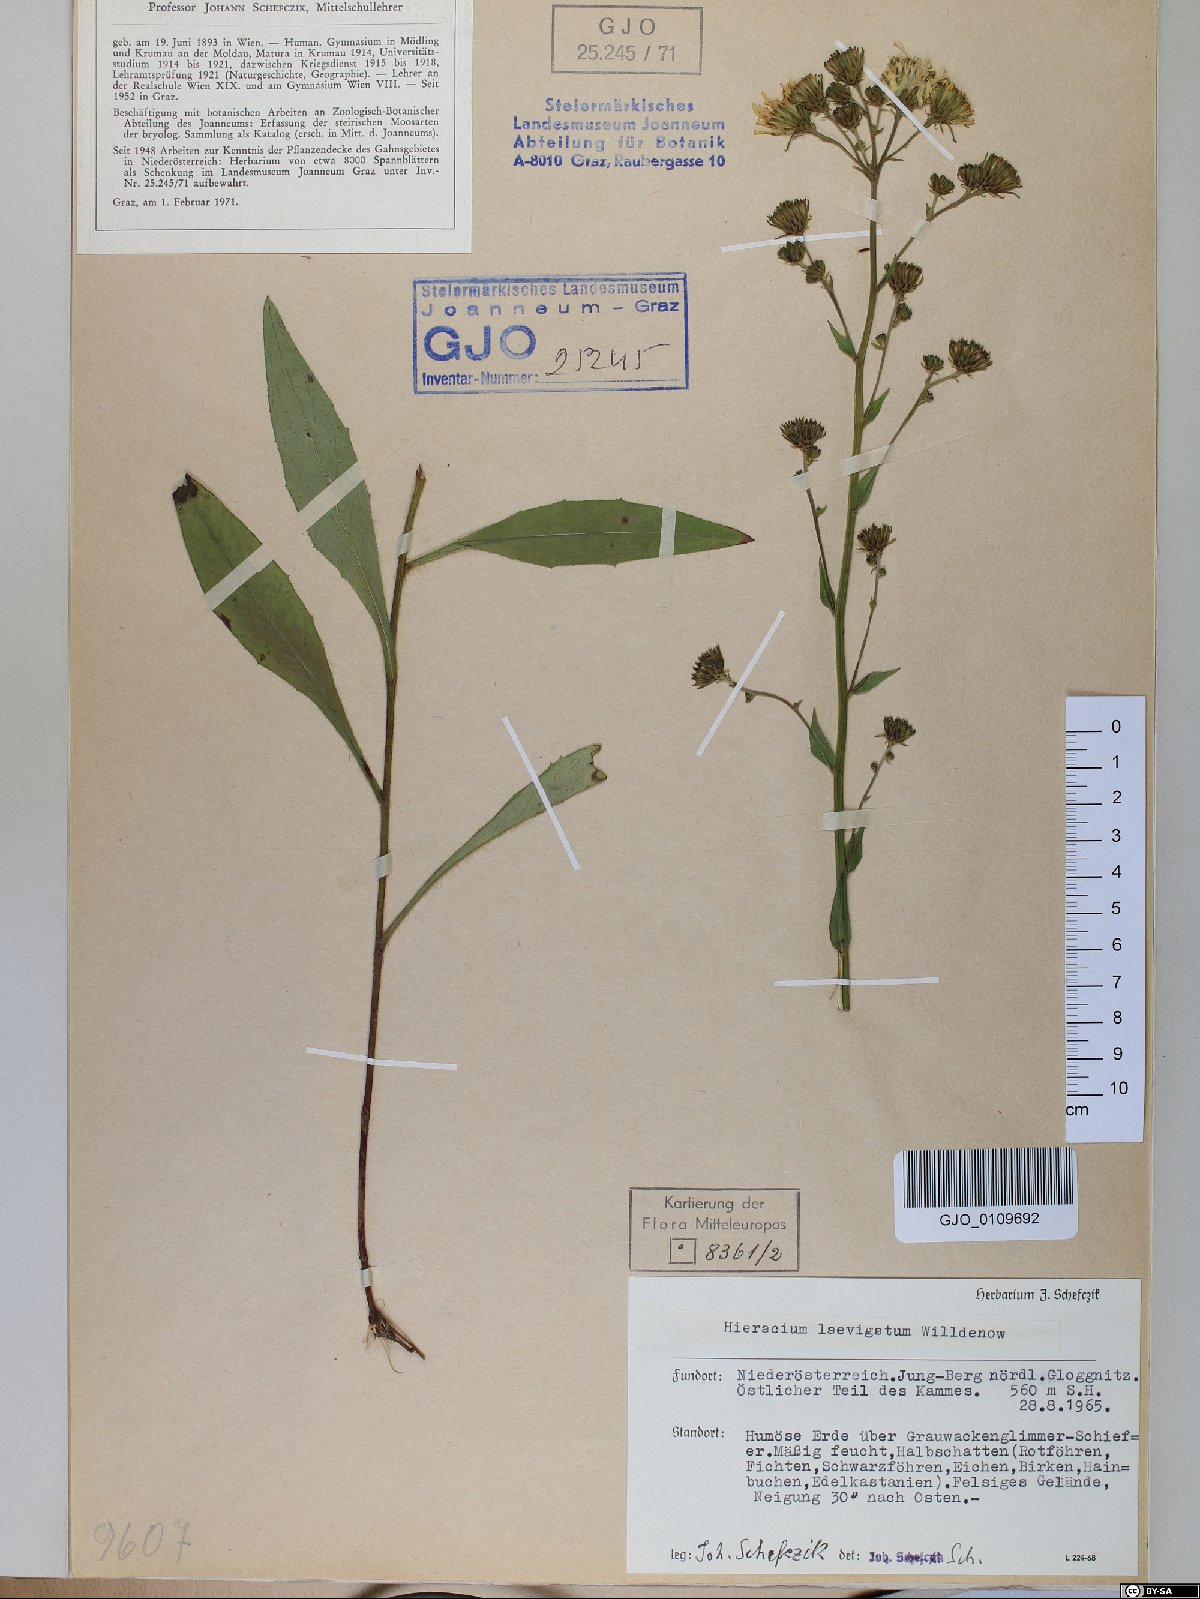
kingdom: Plantae
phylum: Tracheophyta
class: Magnoliopsida
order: Asterales
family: Asteraceae
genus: Hieracium
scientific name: Hieracium laevigatum
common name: Smooth hawkweed
